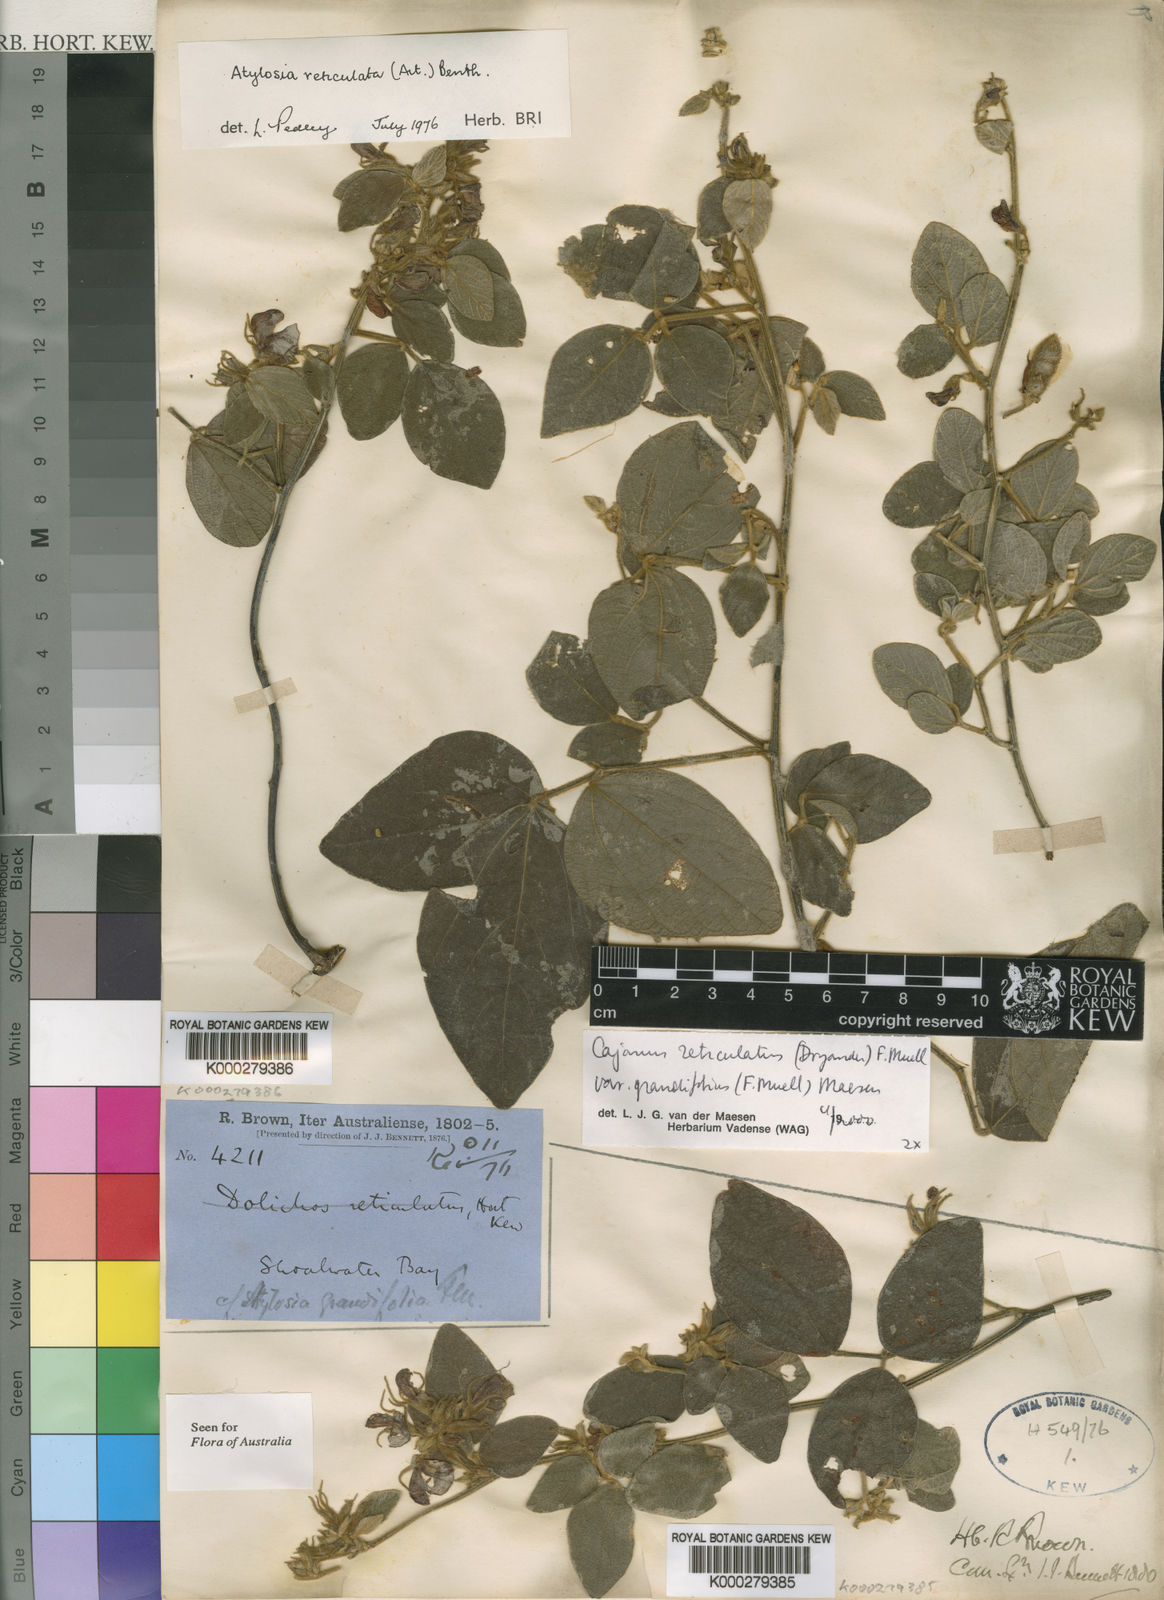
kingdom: Plantae
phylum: Tracheophyta
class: Magnoliopsida
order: Fabales
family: Fabaceae
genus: Cajanus
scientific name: Cajanus reticulatus
